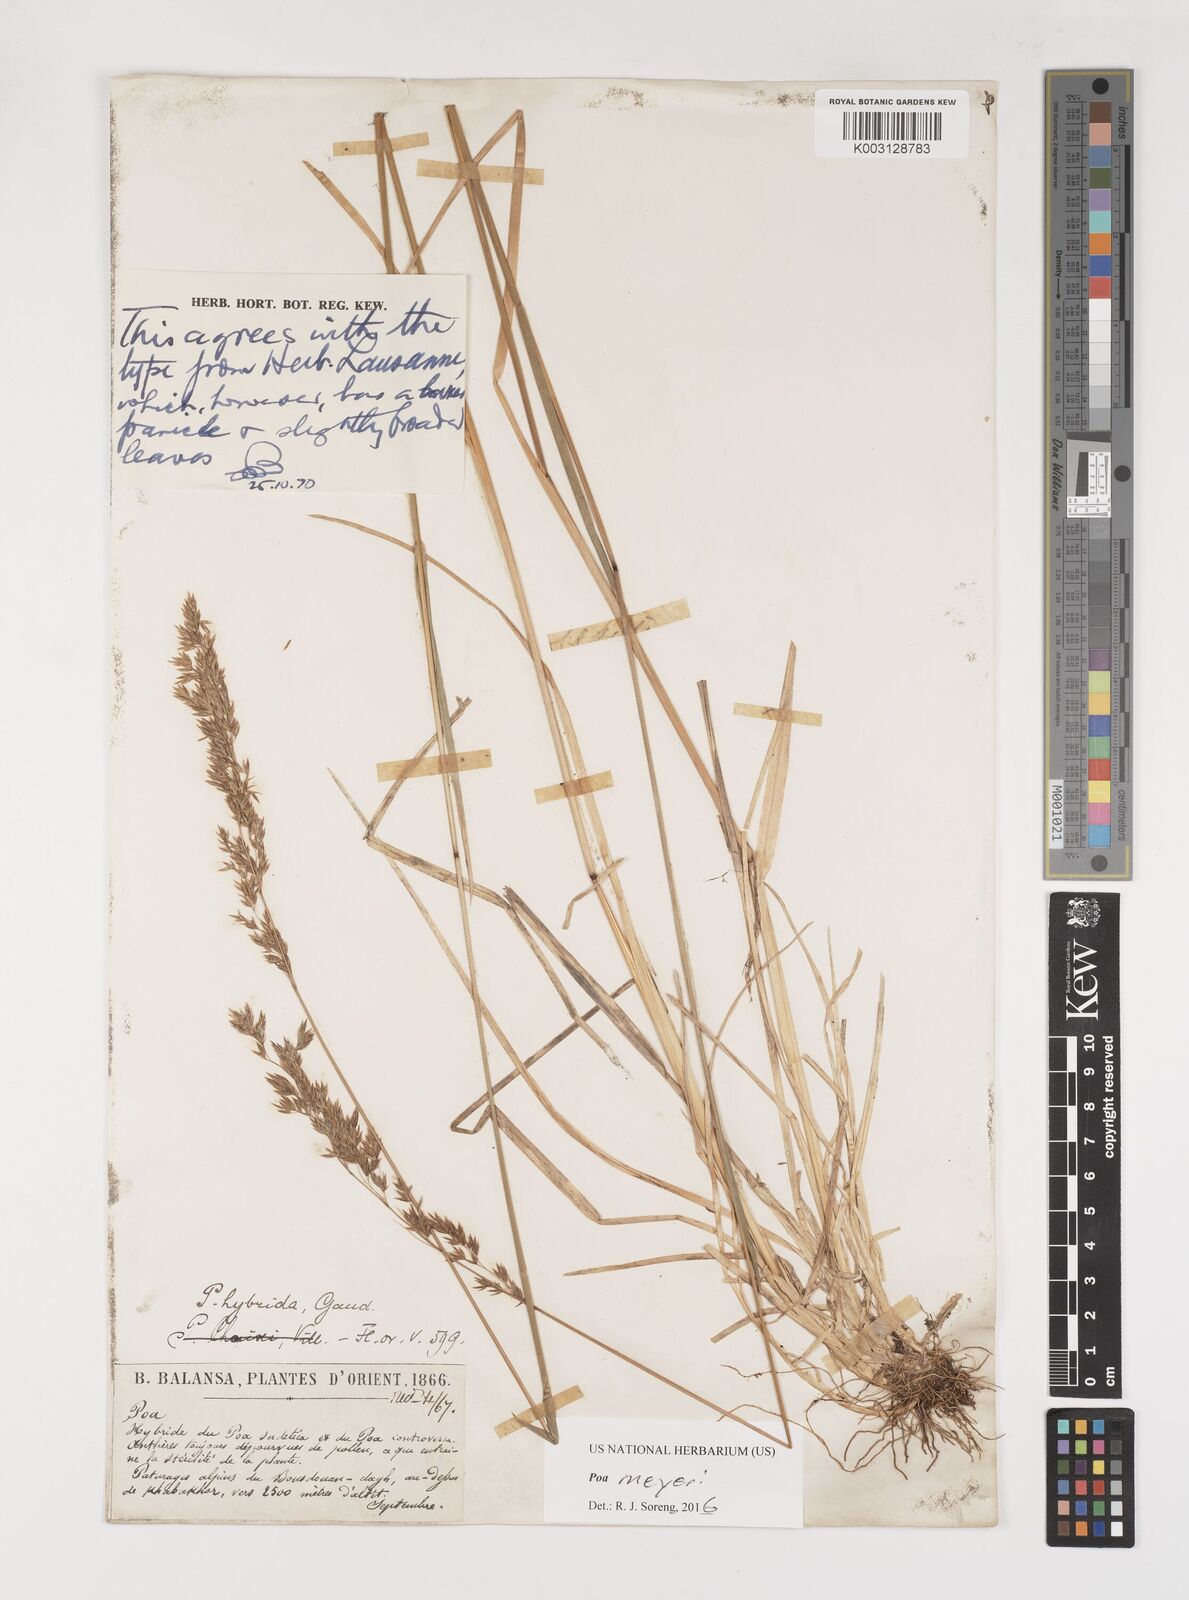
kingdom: Plantae
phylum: Tracheophyta
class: Liliopsida
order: Poales
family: Poaceae
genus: Poa
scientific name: Poa longifolia
